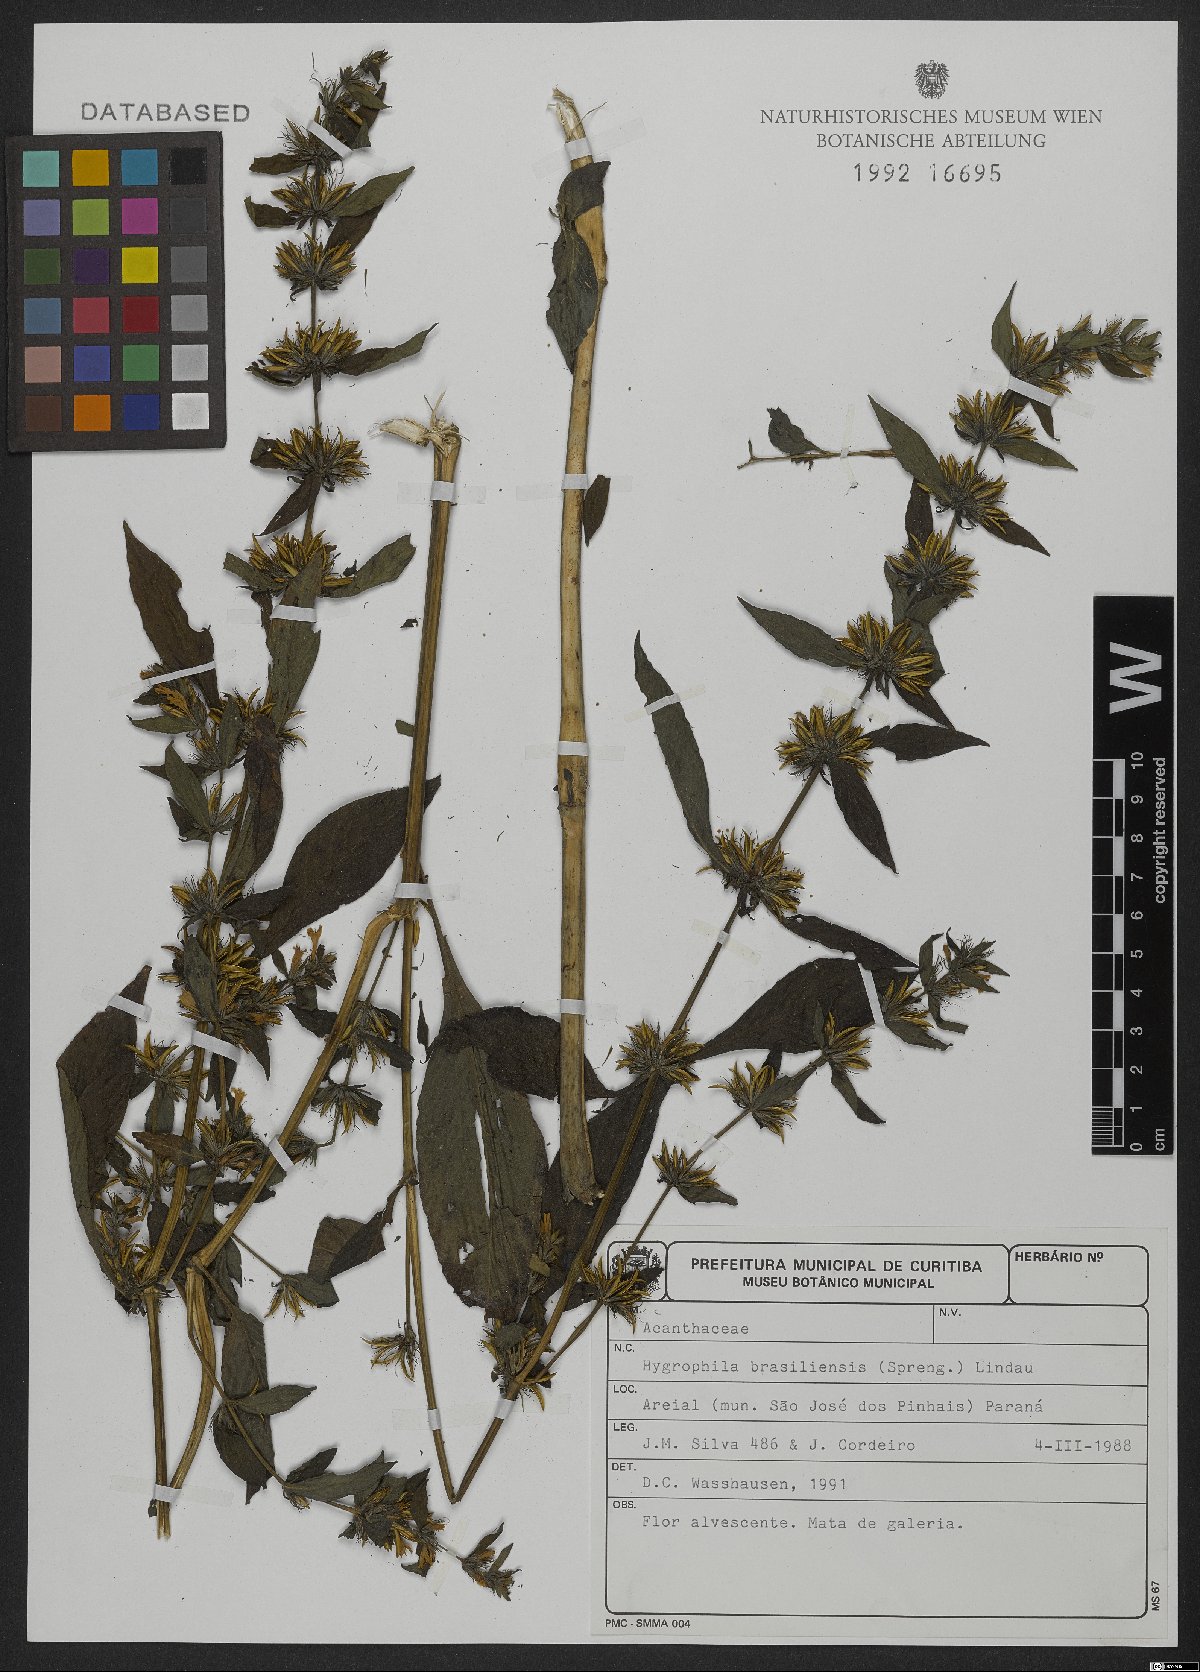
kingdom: Plantae
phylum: Tracheophyta
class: Magnoliopsida
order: Lamiales
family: Acanthaceae
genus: Hygrophila
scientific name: Hygrophila costata
